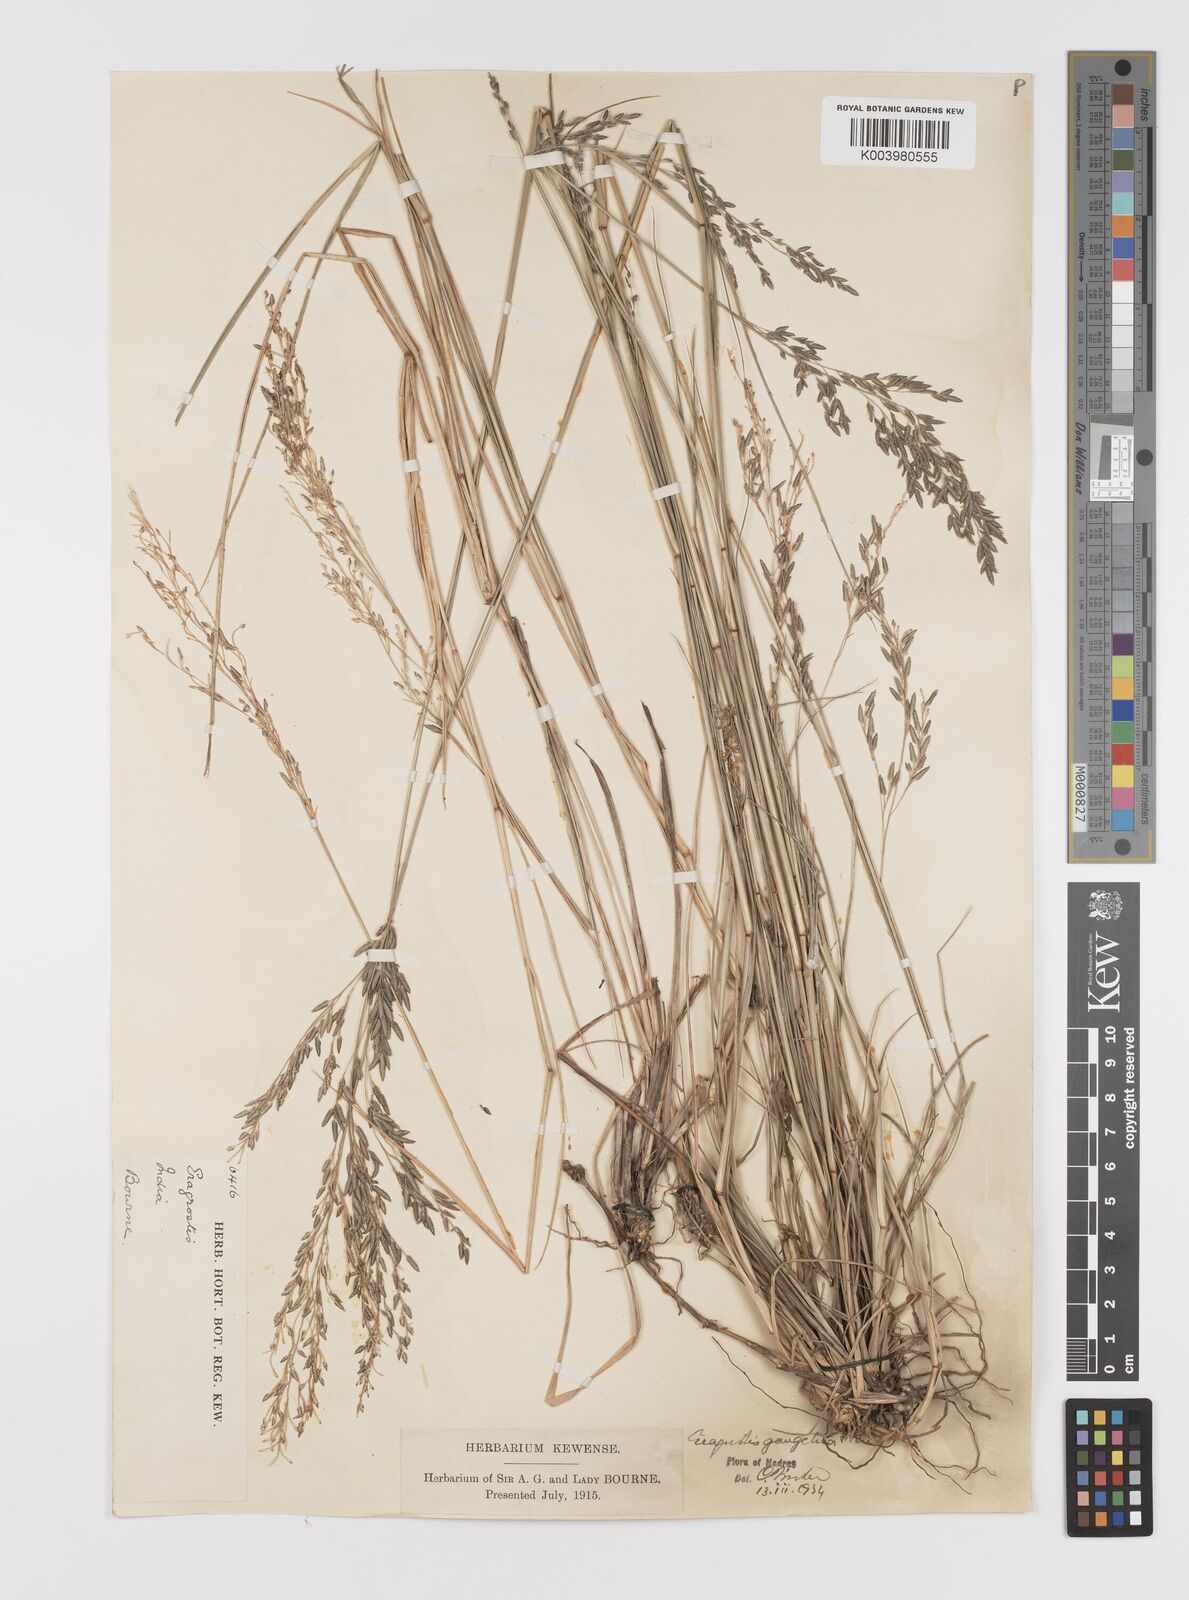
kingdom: Plantae
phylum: Tracheophyta
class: Liliopsida
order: Poales
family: Poaceae
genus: Eragrostis
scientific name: Eragrostis
